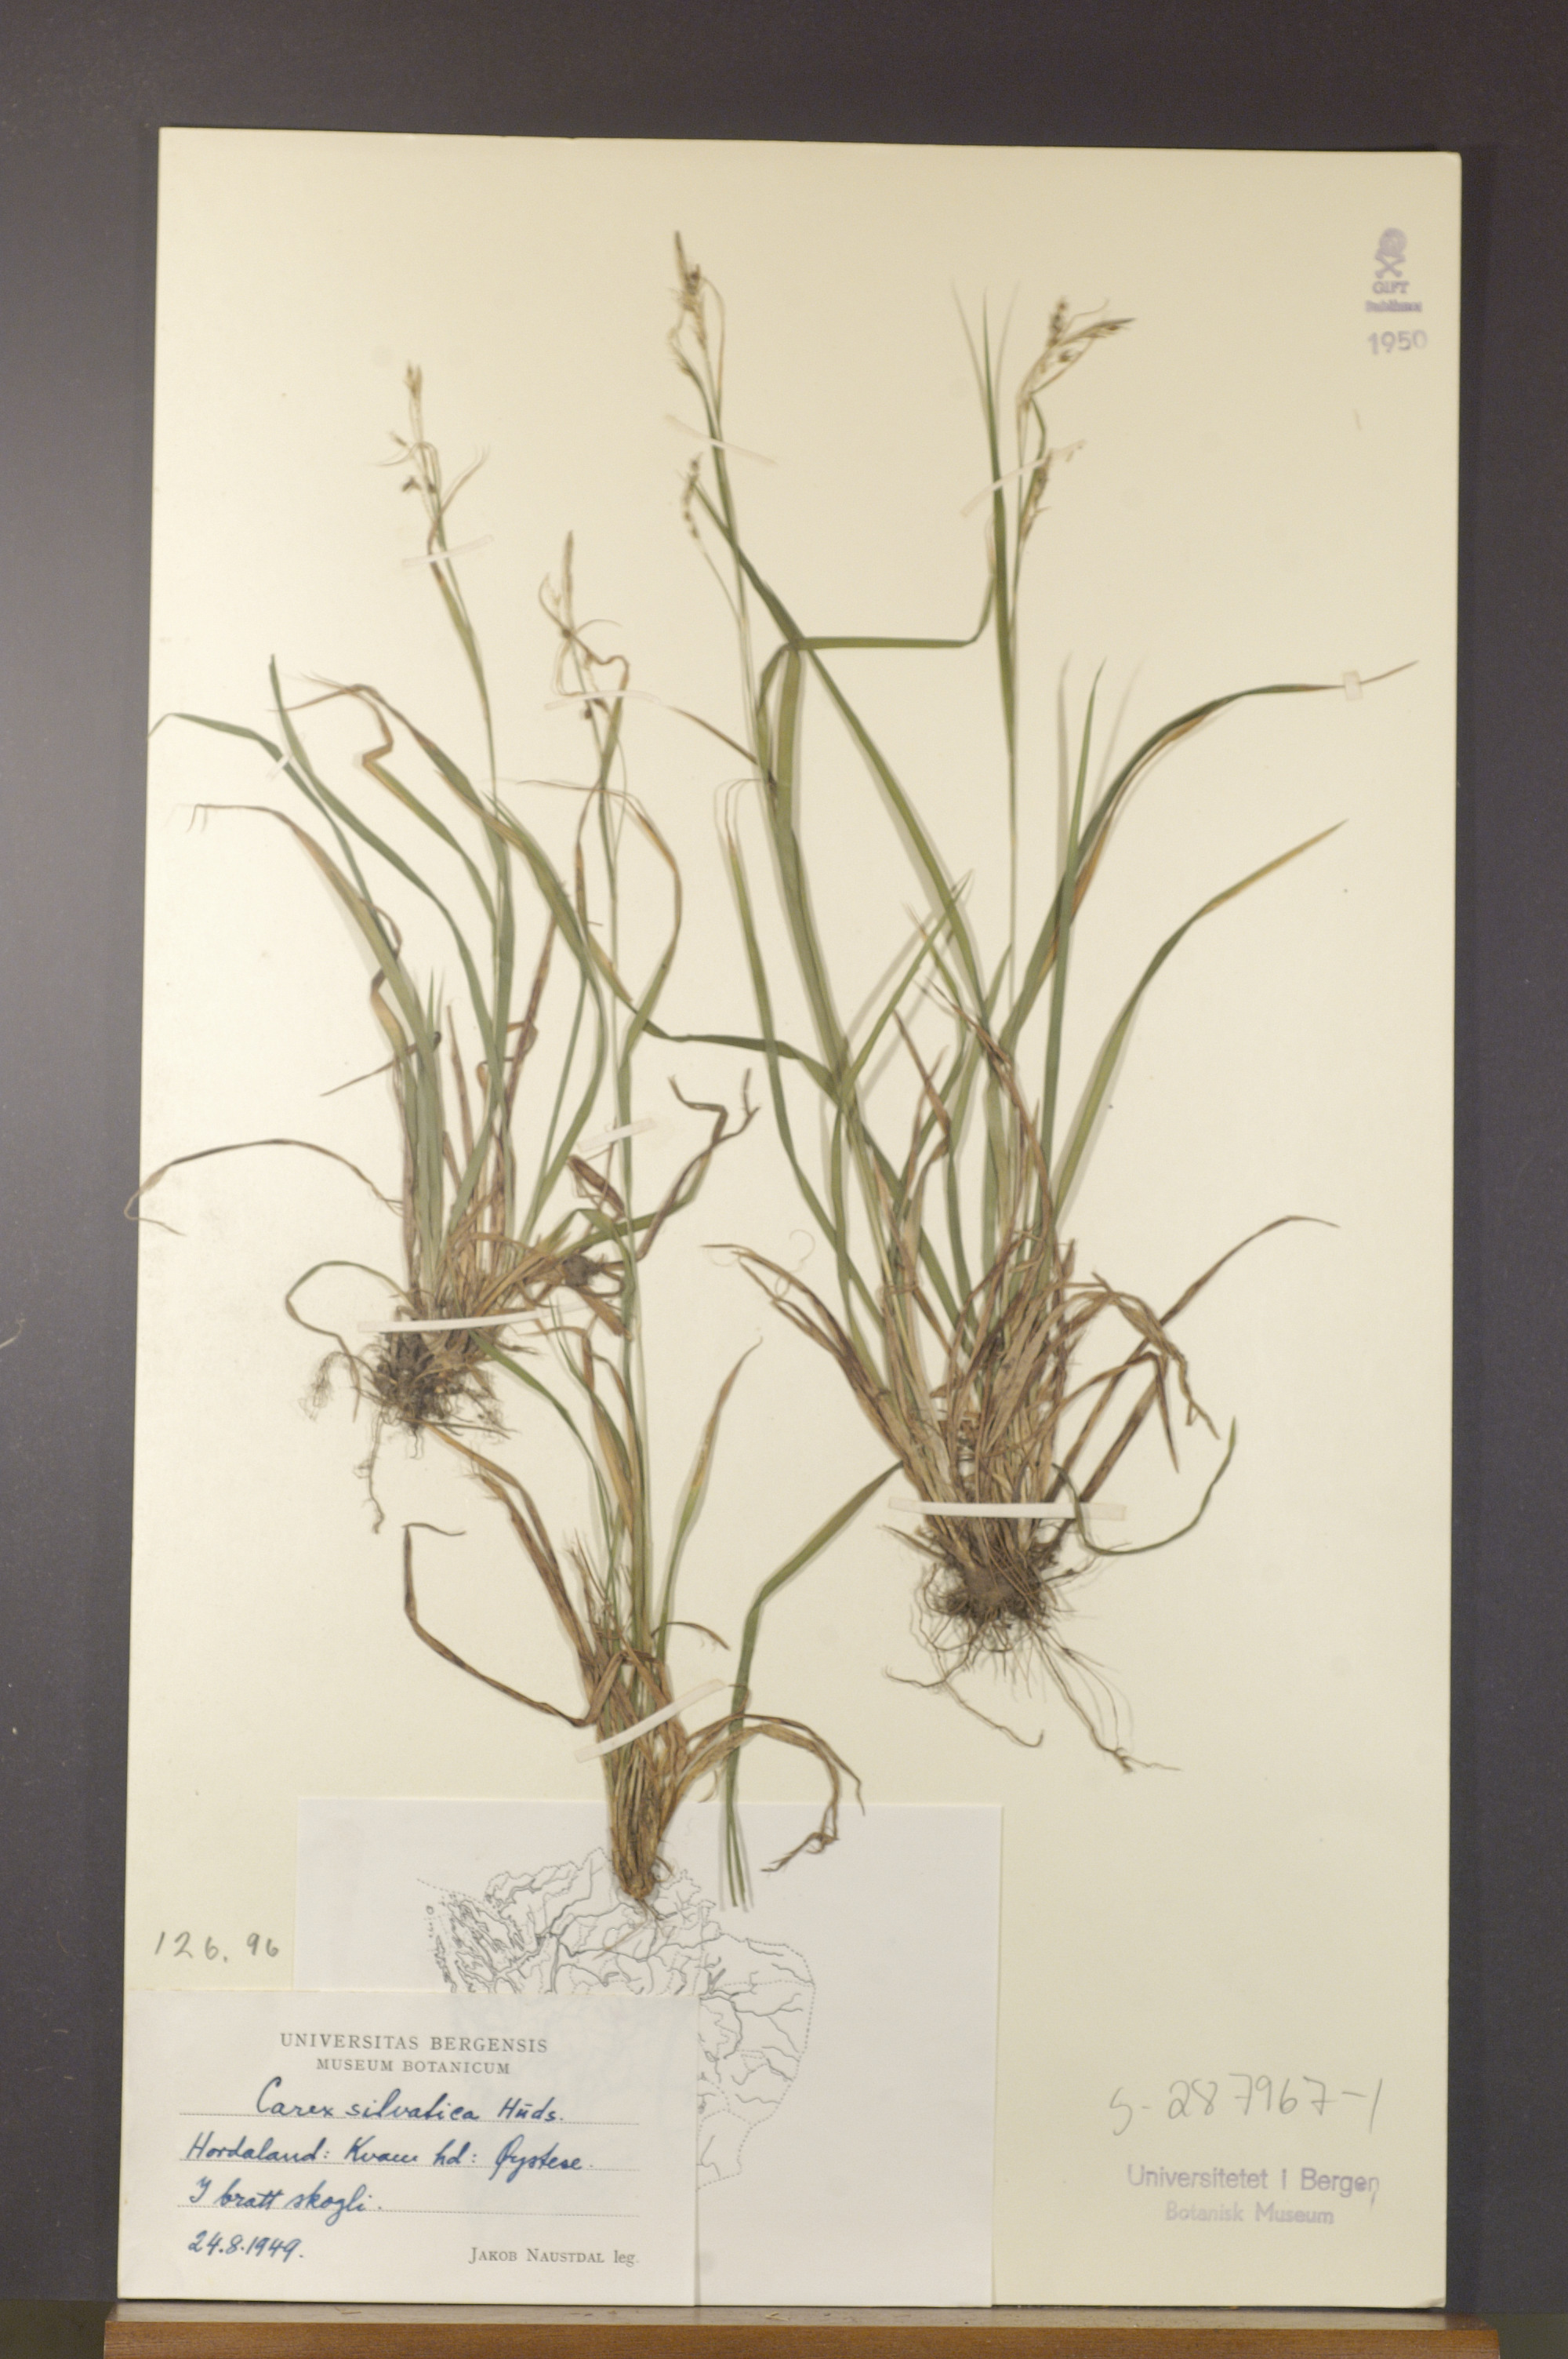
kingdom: Plantae
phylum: Tracheophyta
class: Liliopsida
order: Poales
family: Cyperaceae
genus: Carex
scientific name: Carex sylvatica
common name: Wood-sedge
